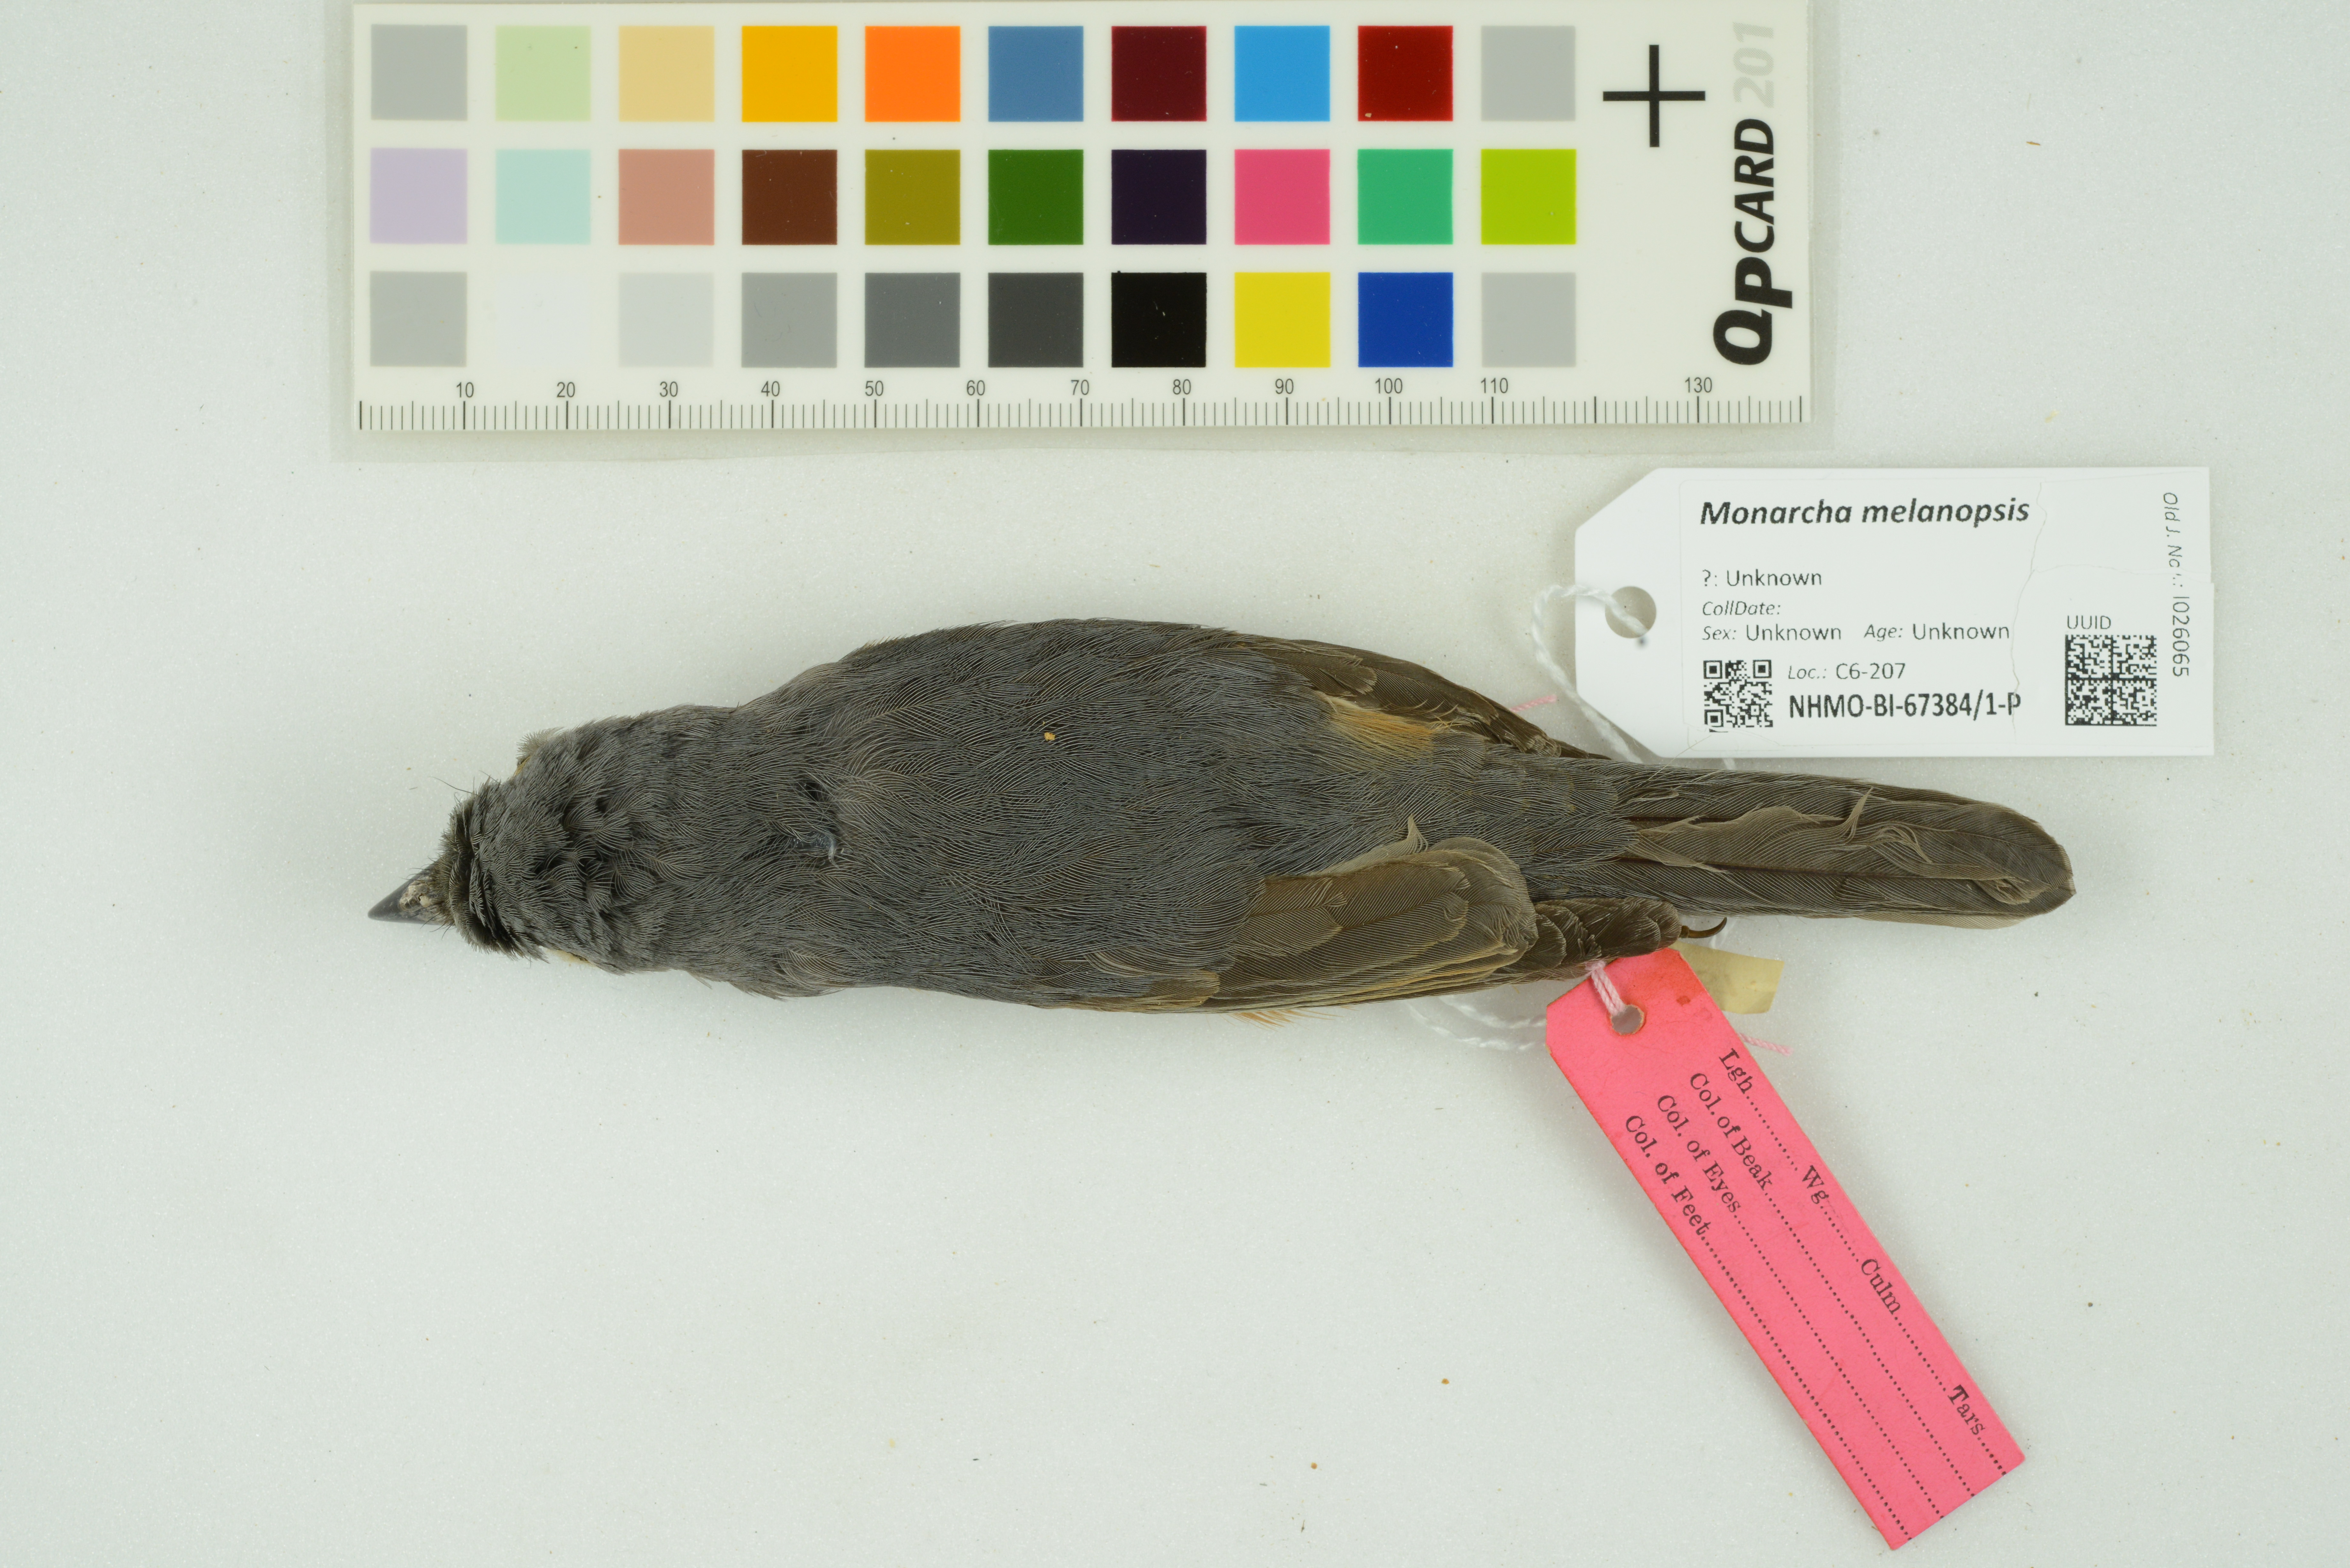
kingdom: Animalia
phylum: Chordata
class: Aves
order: Passeriformes
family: Monarchidae
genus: Monarcha
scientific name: Monarcha melanopsis
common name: Black-faced monarch
